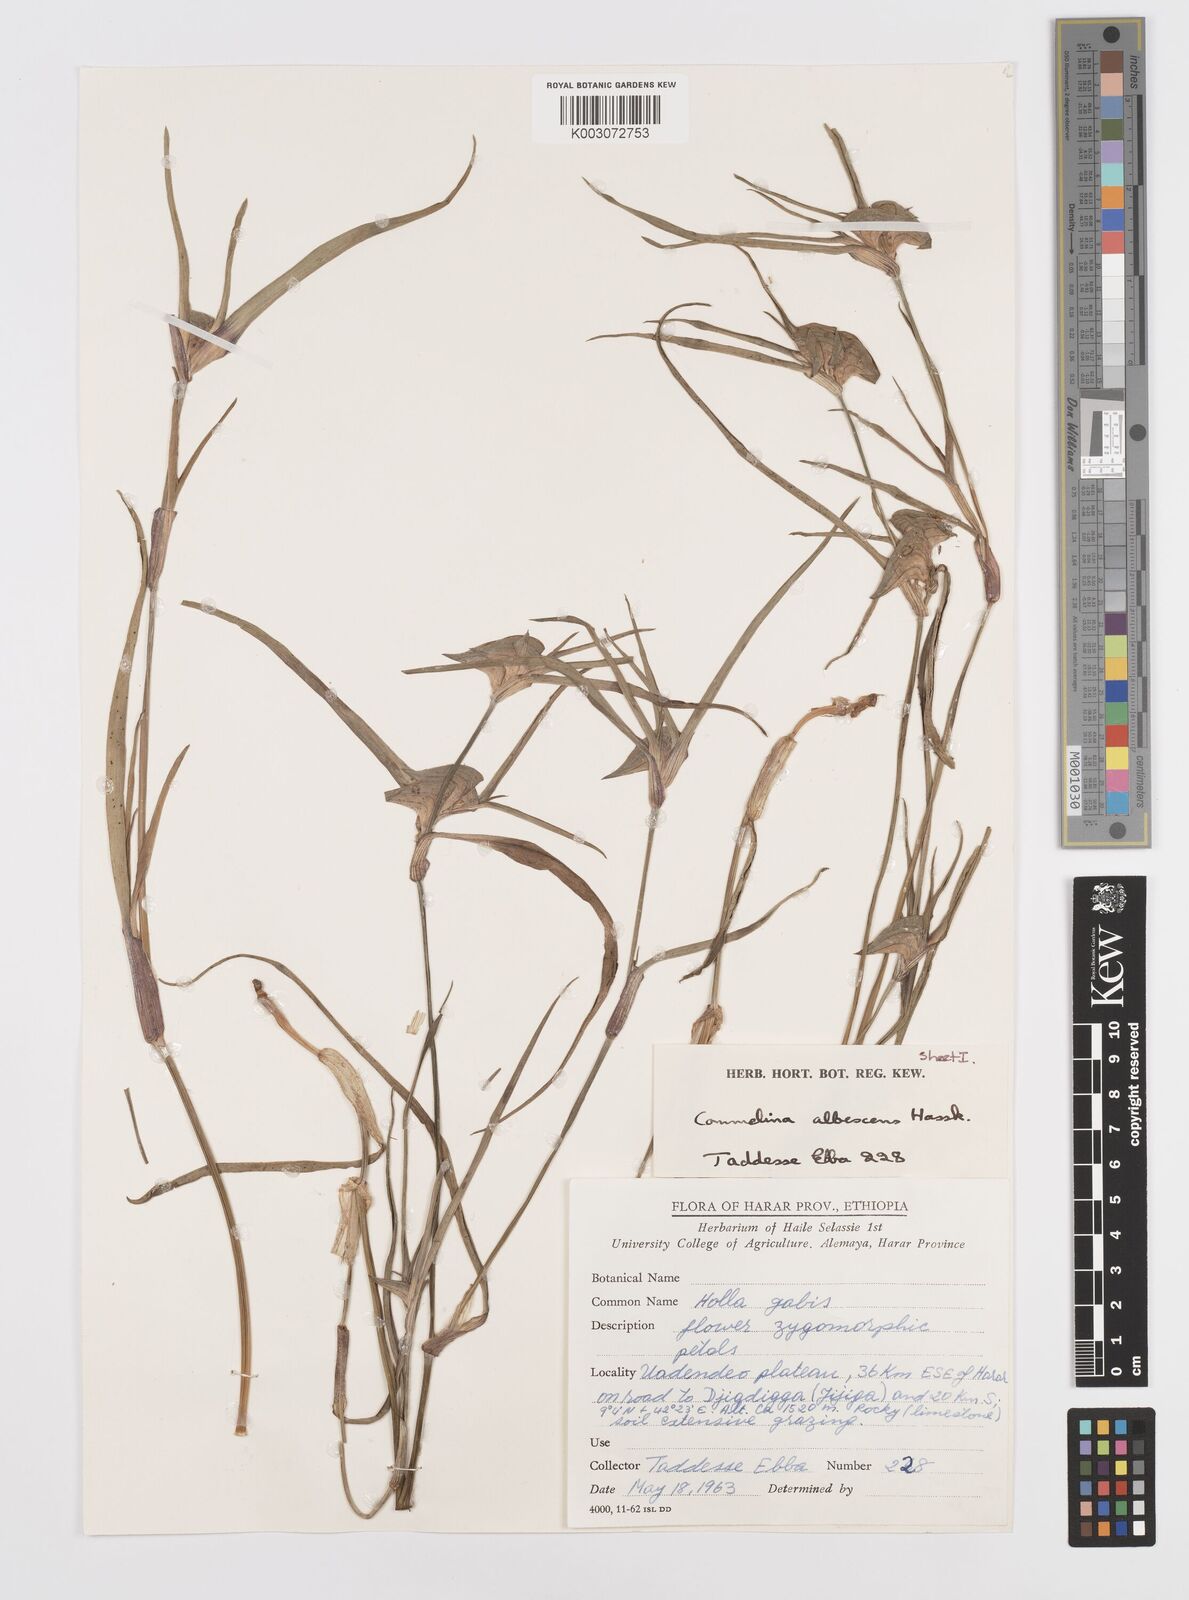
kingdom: Plantae
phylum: Tracheophyta
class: Liliopsida
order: Commelinales
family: Commelinaceae
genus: Commelina
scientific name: Commelina albescens
